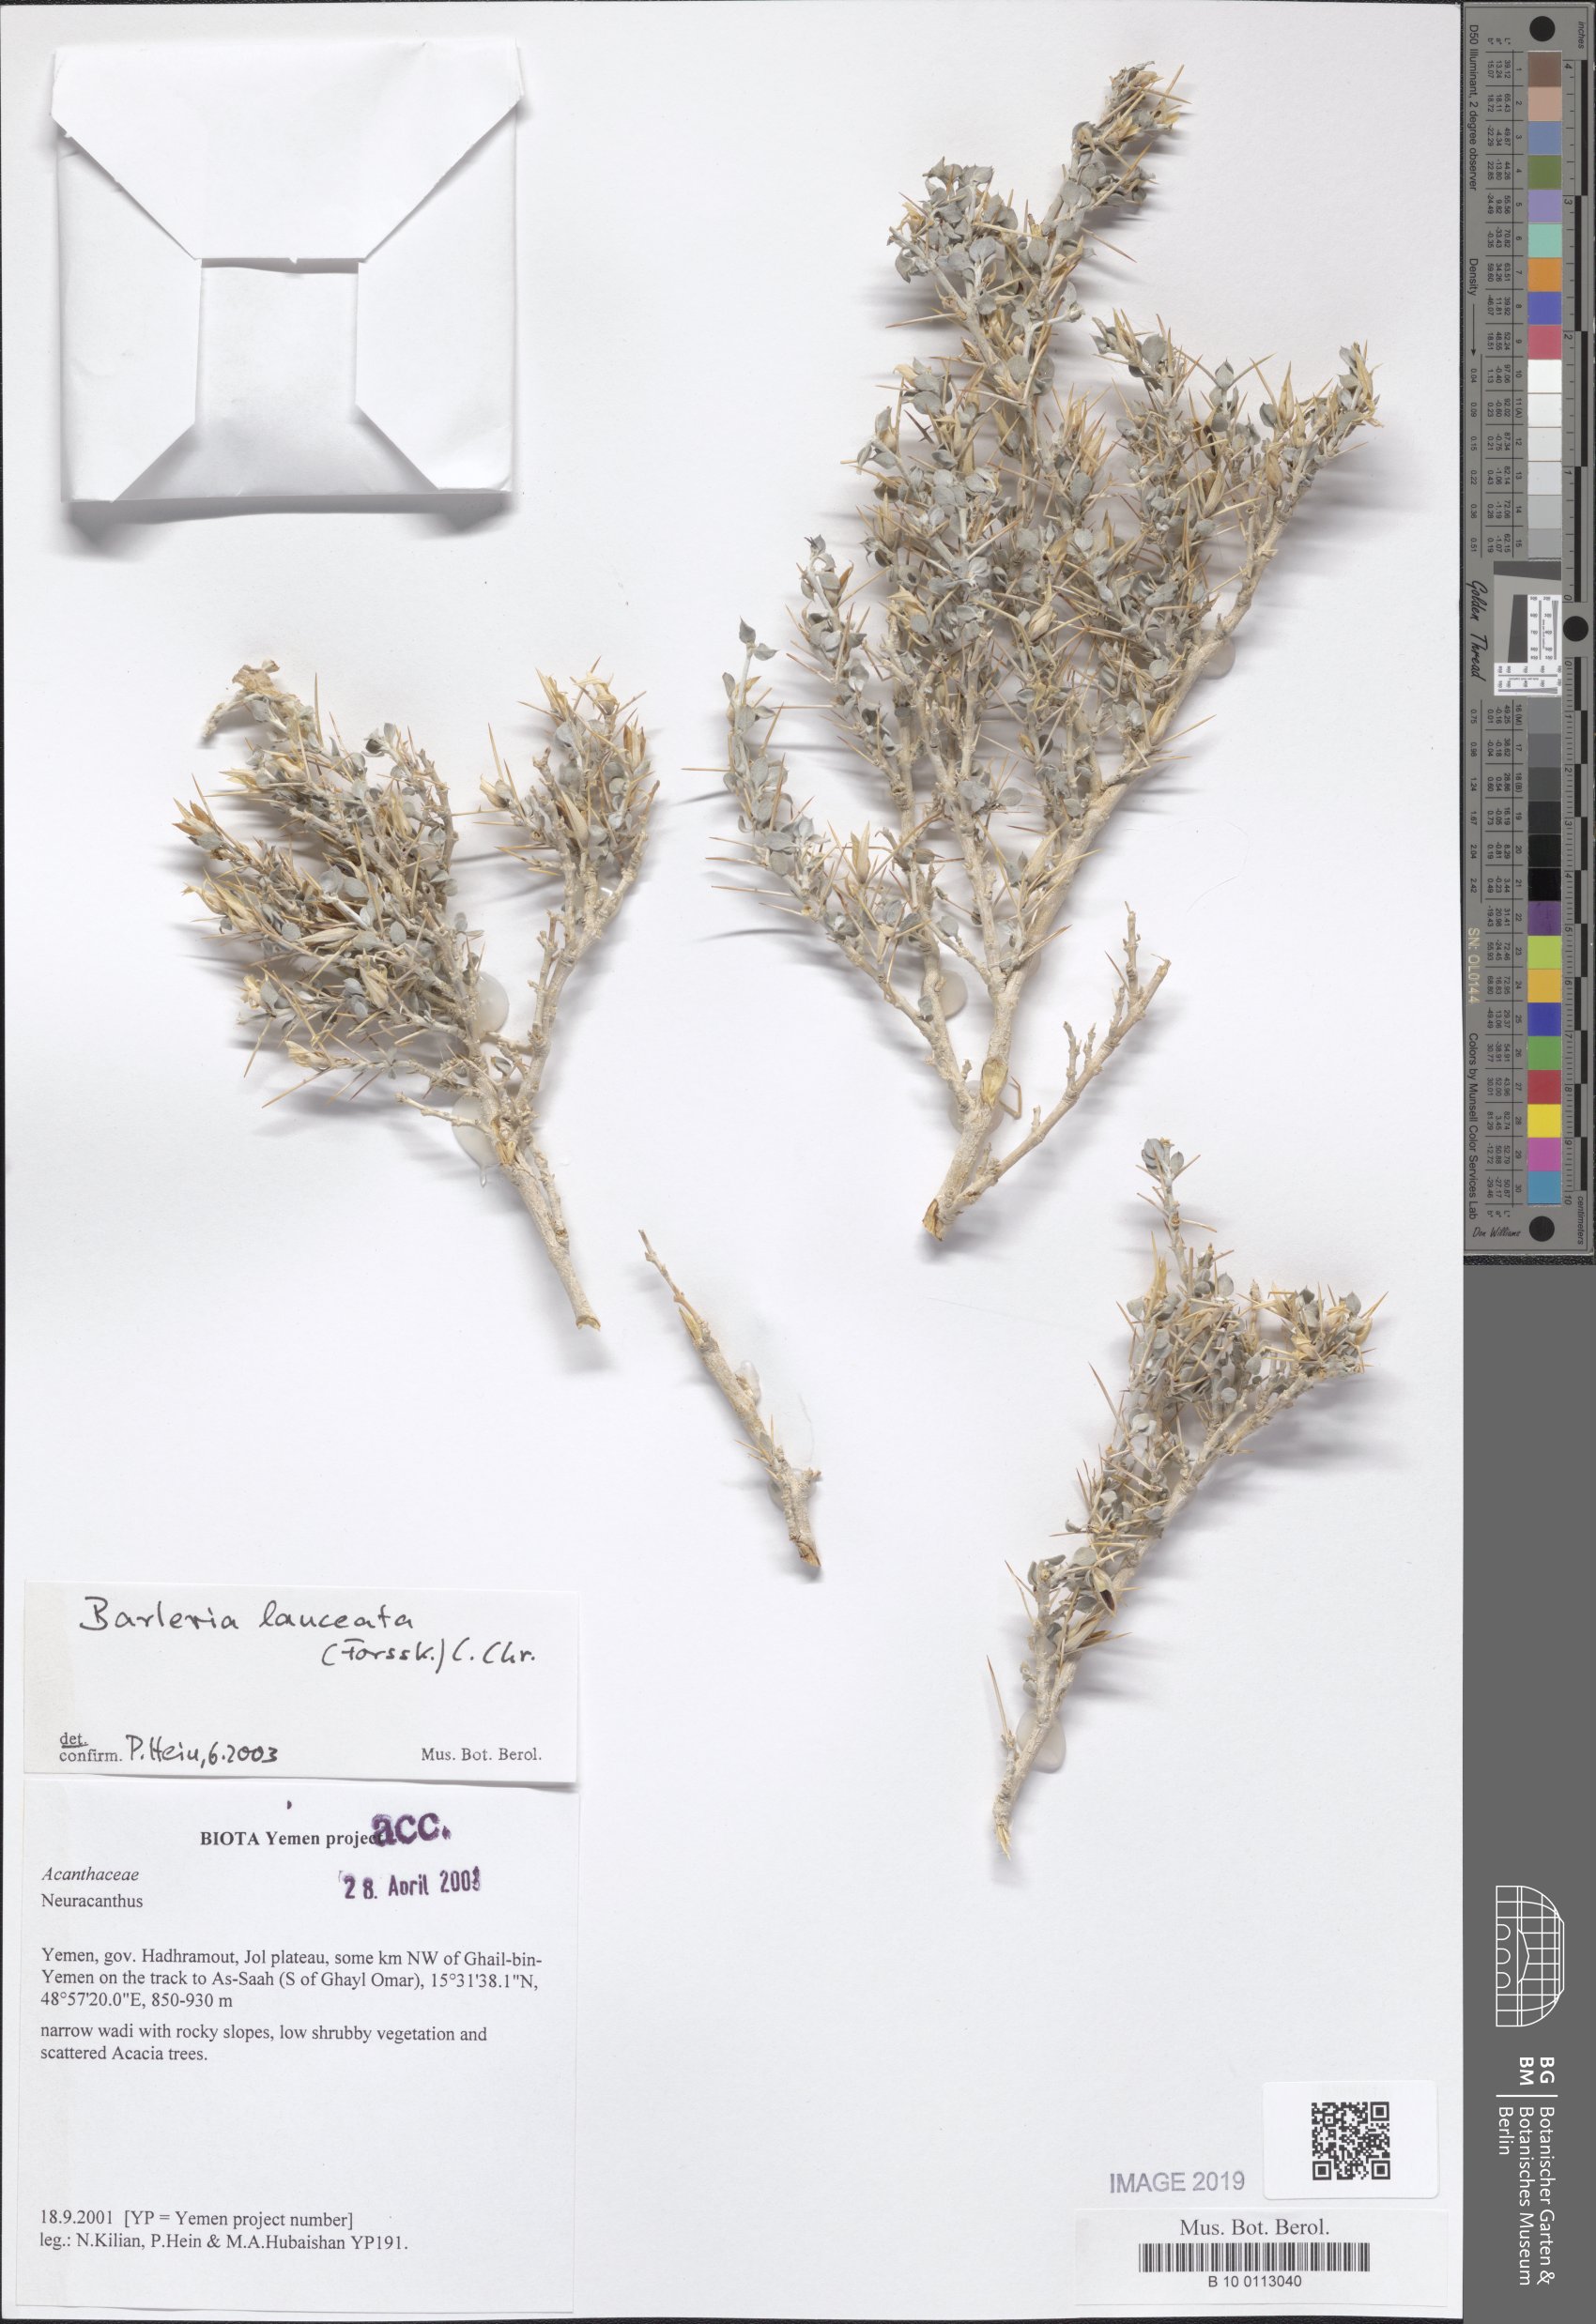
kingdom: Plantae
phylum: Tracheophyta
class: Magnoliopsida
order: Lamiales
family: Acanthaceae
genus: Barleria
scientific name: Barleria lanceata
